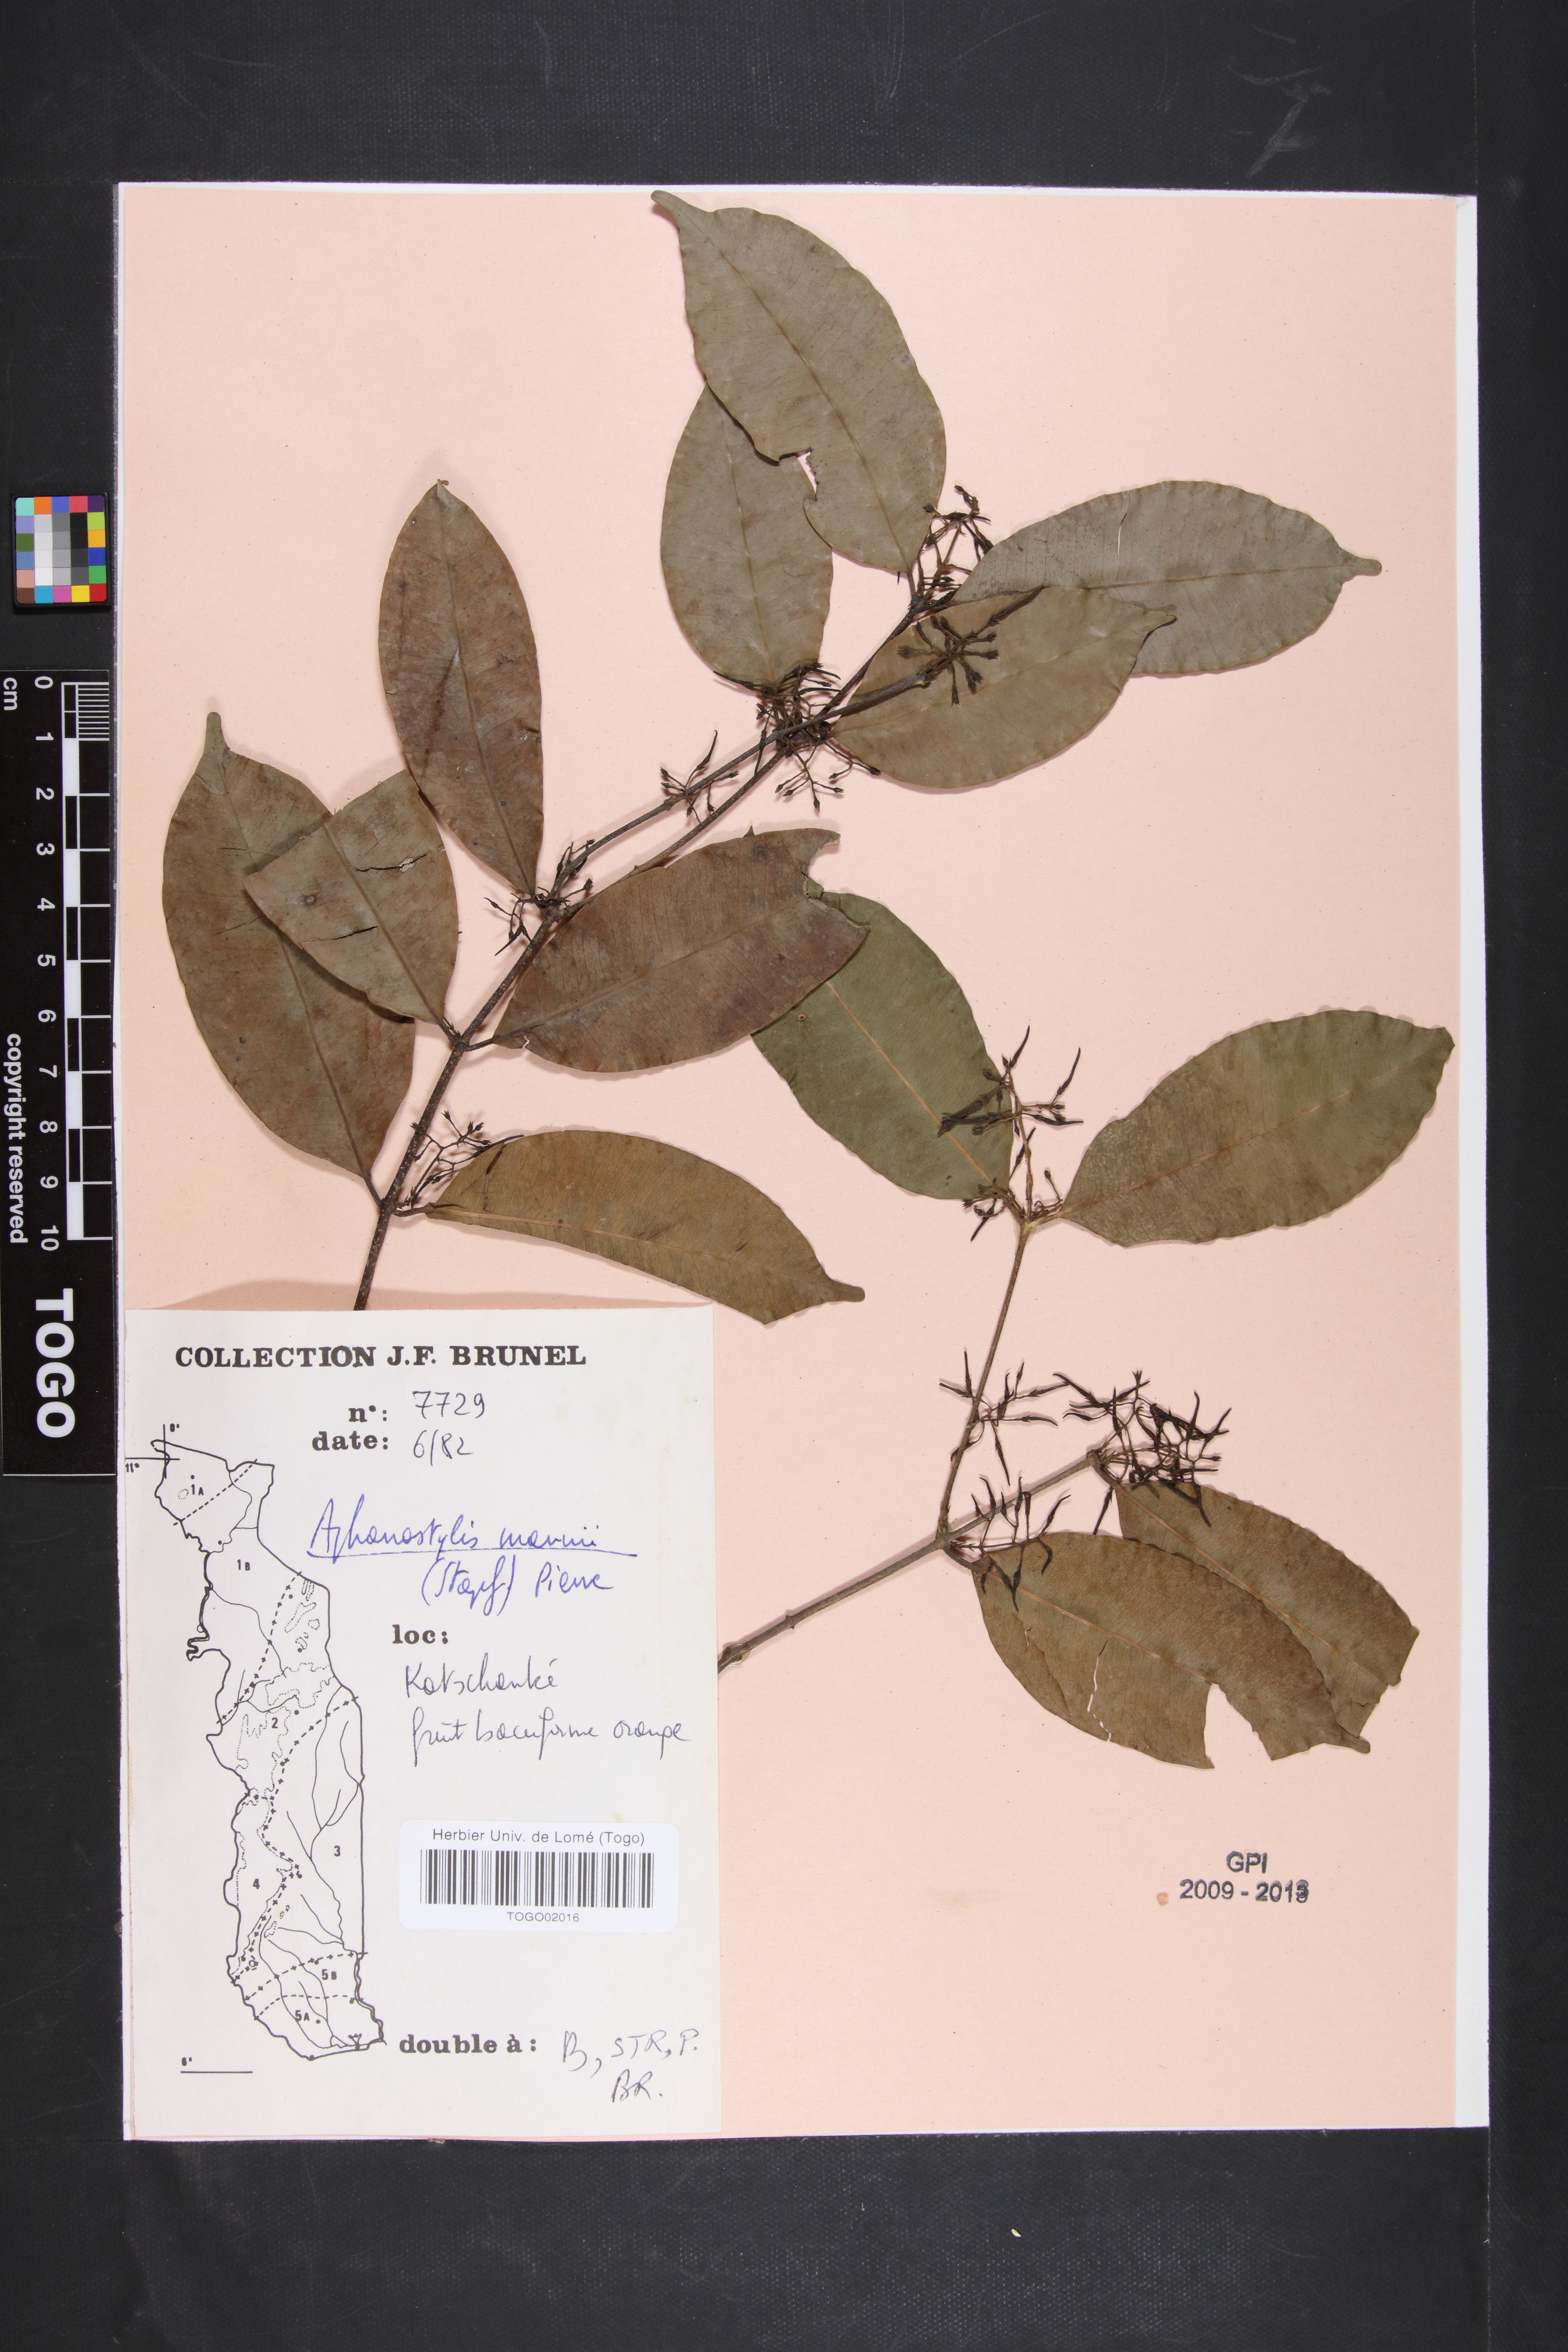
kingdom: Plantae
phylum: Tracheophyta
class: Magnoliopsida
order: Gentianales
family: Apocynaceae
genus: Landolphia
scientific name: Landolphia incerta
